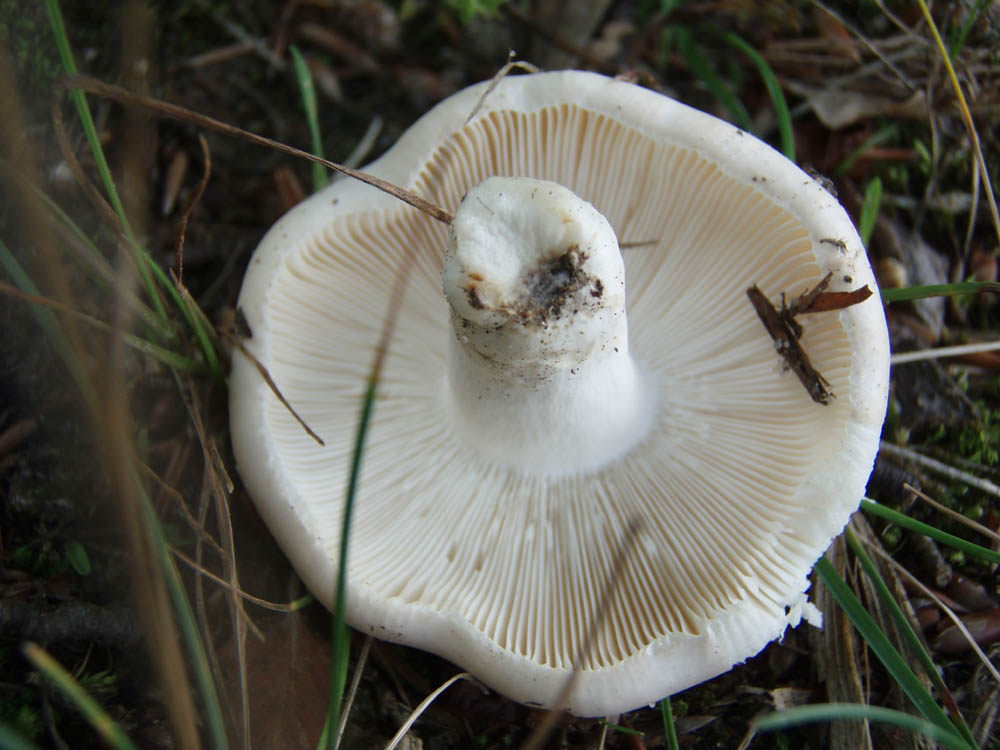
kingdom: Fungi
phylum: Basidiomycota
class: Agaricomycetes
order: Russulales
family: Russulaceae
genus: Russula
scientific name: Russula faustiana
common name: olivengrå skørhat
